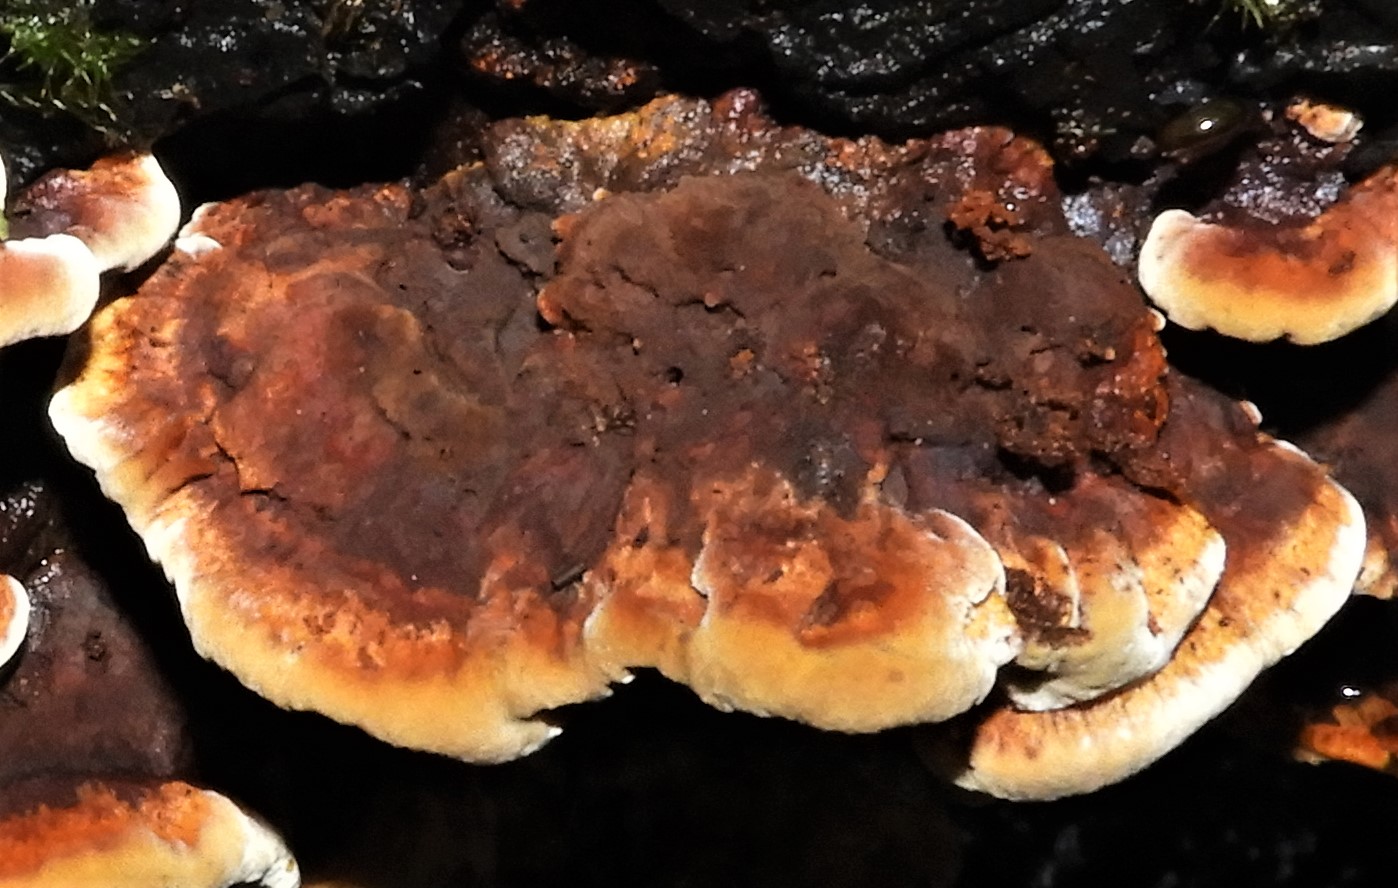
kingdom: Fungi
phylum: Basidiomycota
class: Agaricomycetes
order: Hymenochaetales
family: Hymenochaetaceae
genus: Xanthoporia
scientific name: Xanthoporia radiata
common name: elle-spejlporesvamp
